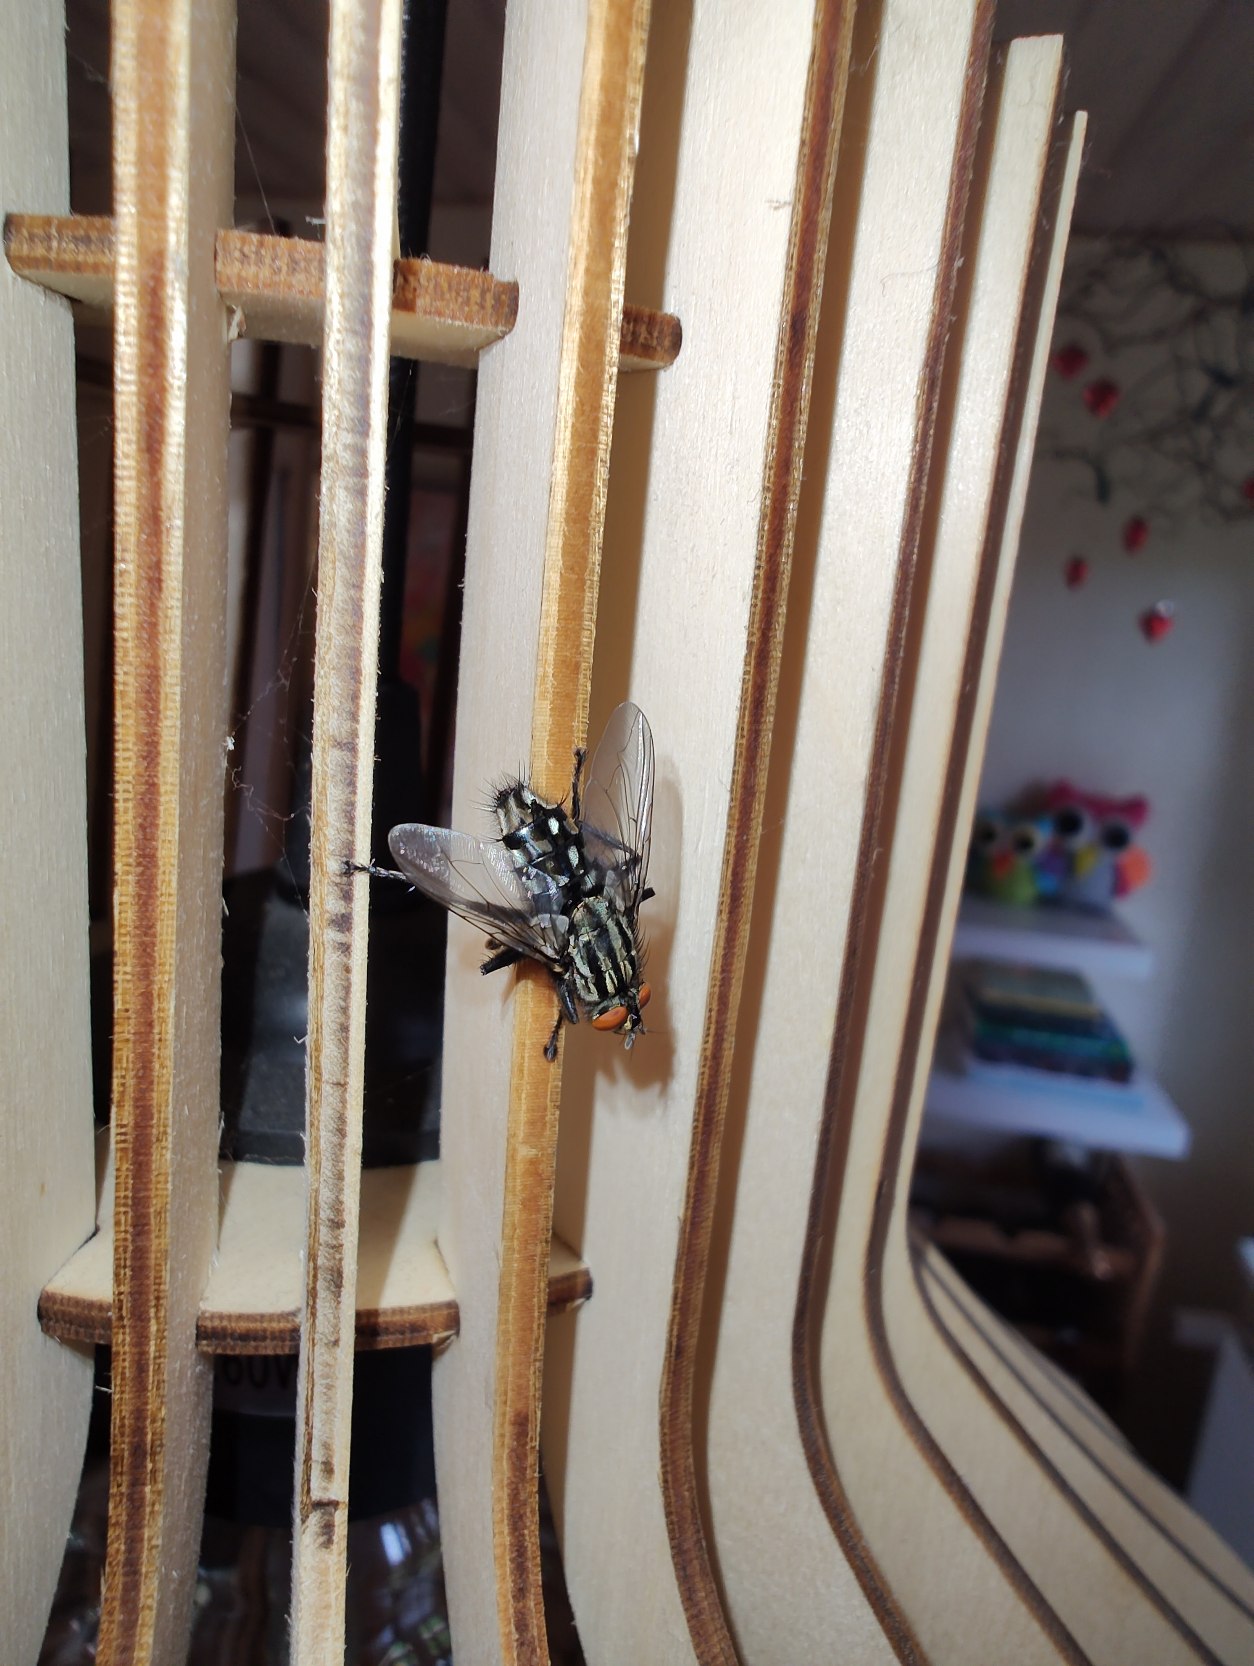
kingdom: Animalia
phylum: Arthropoda
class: Insecta
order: Diptera
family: Sarcophagidae
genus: Sarcophaga
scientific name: Sarcophaga
